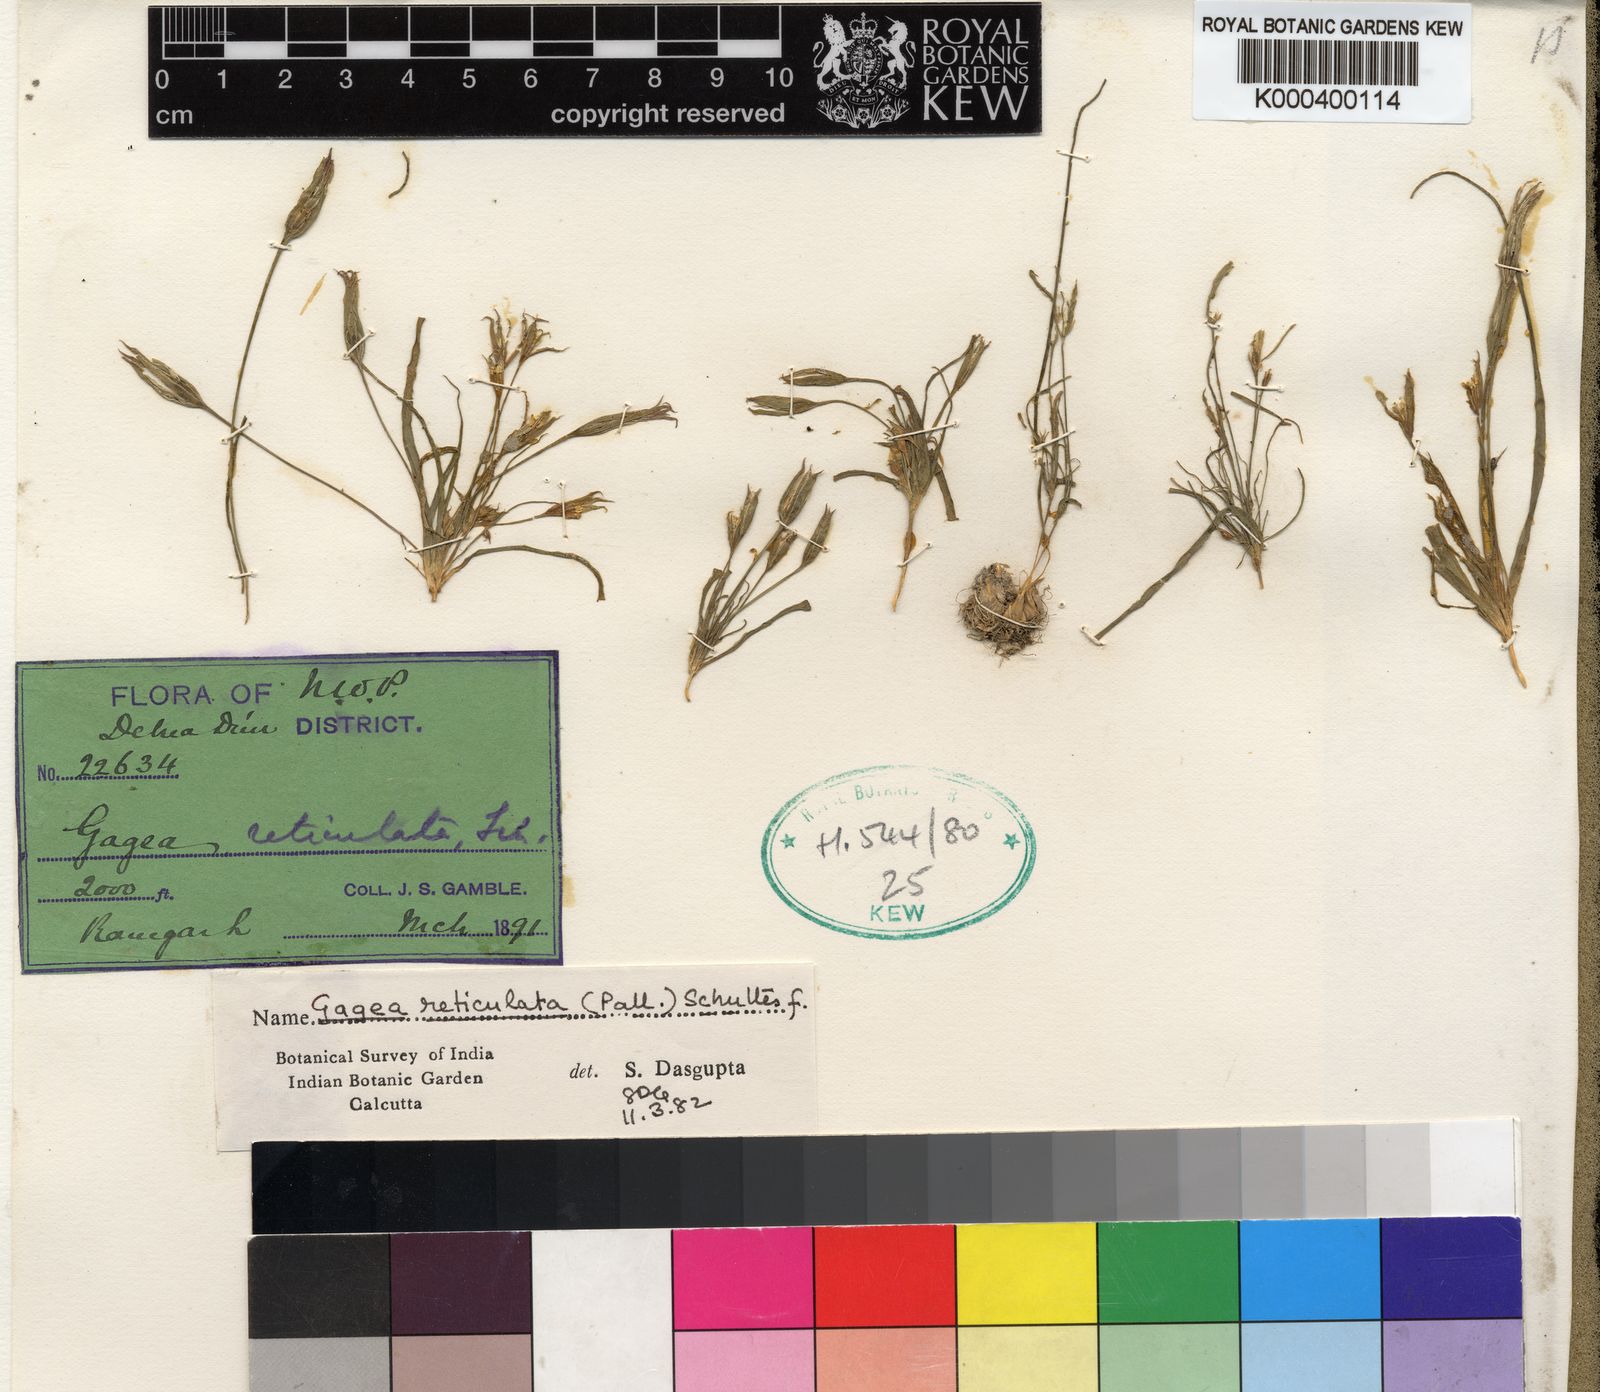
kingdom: Plantae
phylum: Tracheophyta
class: Liliopsida
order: Liliales
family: Liliaceae
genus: Gagea
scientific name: Gagea reticulata
